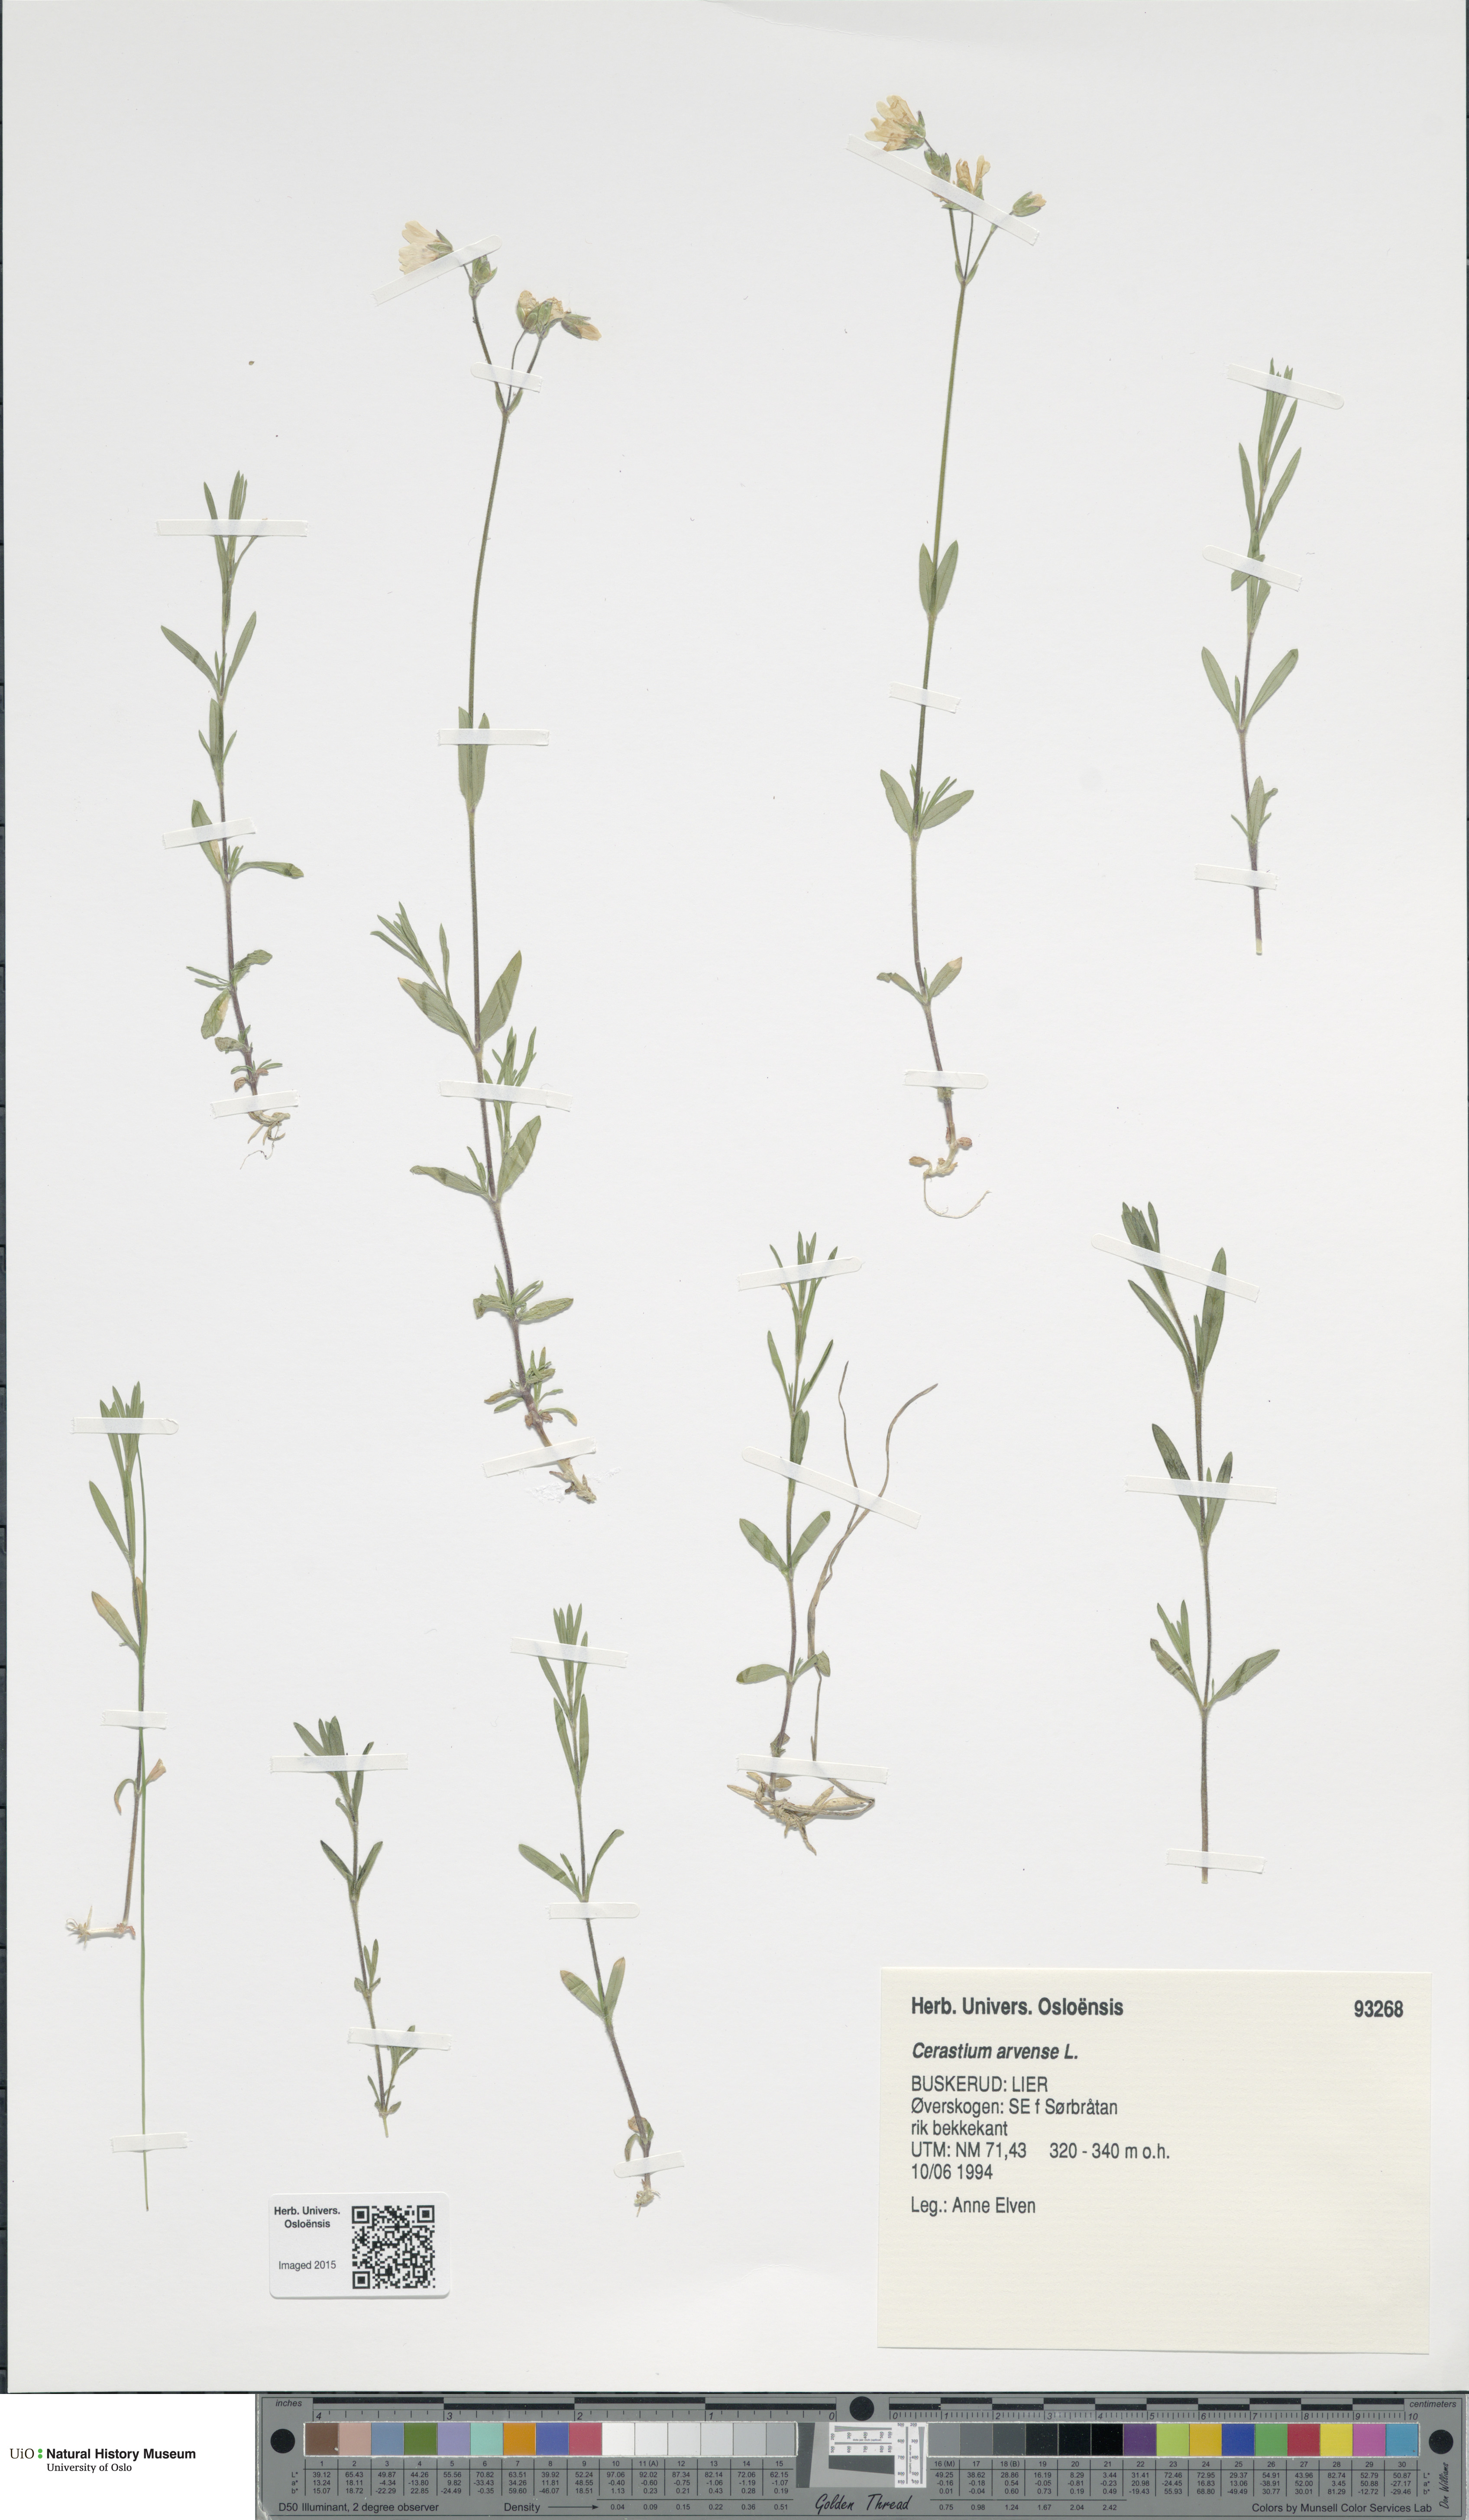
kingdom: Plantae
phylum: Tracheophyta
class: Magnoliopsida
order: Caryophyllales
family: Caryophyllaceae
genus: Cerastium
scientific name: Cerastium arvense
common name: Field mouse-ear
